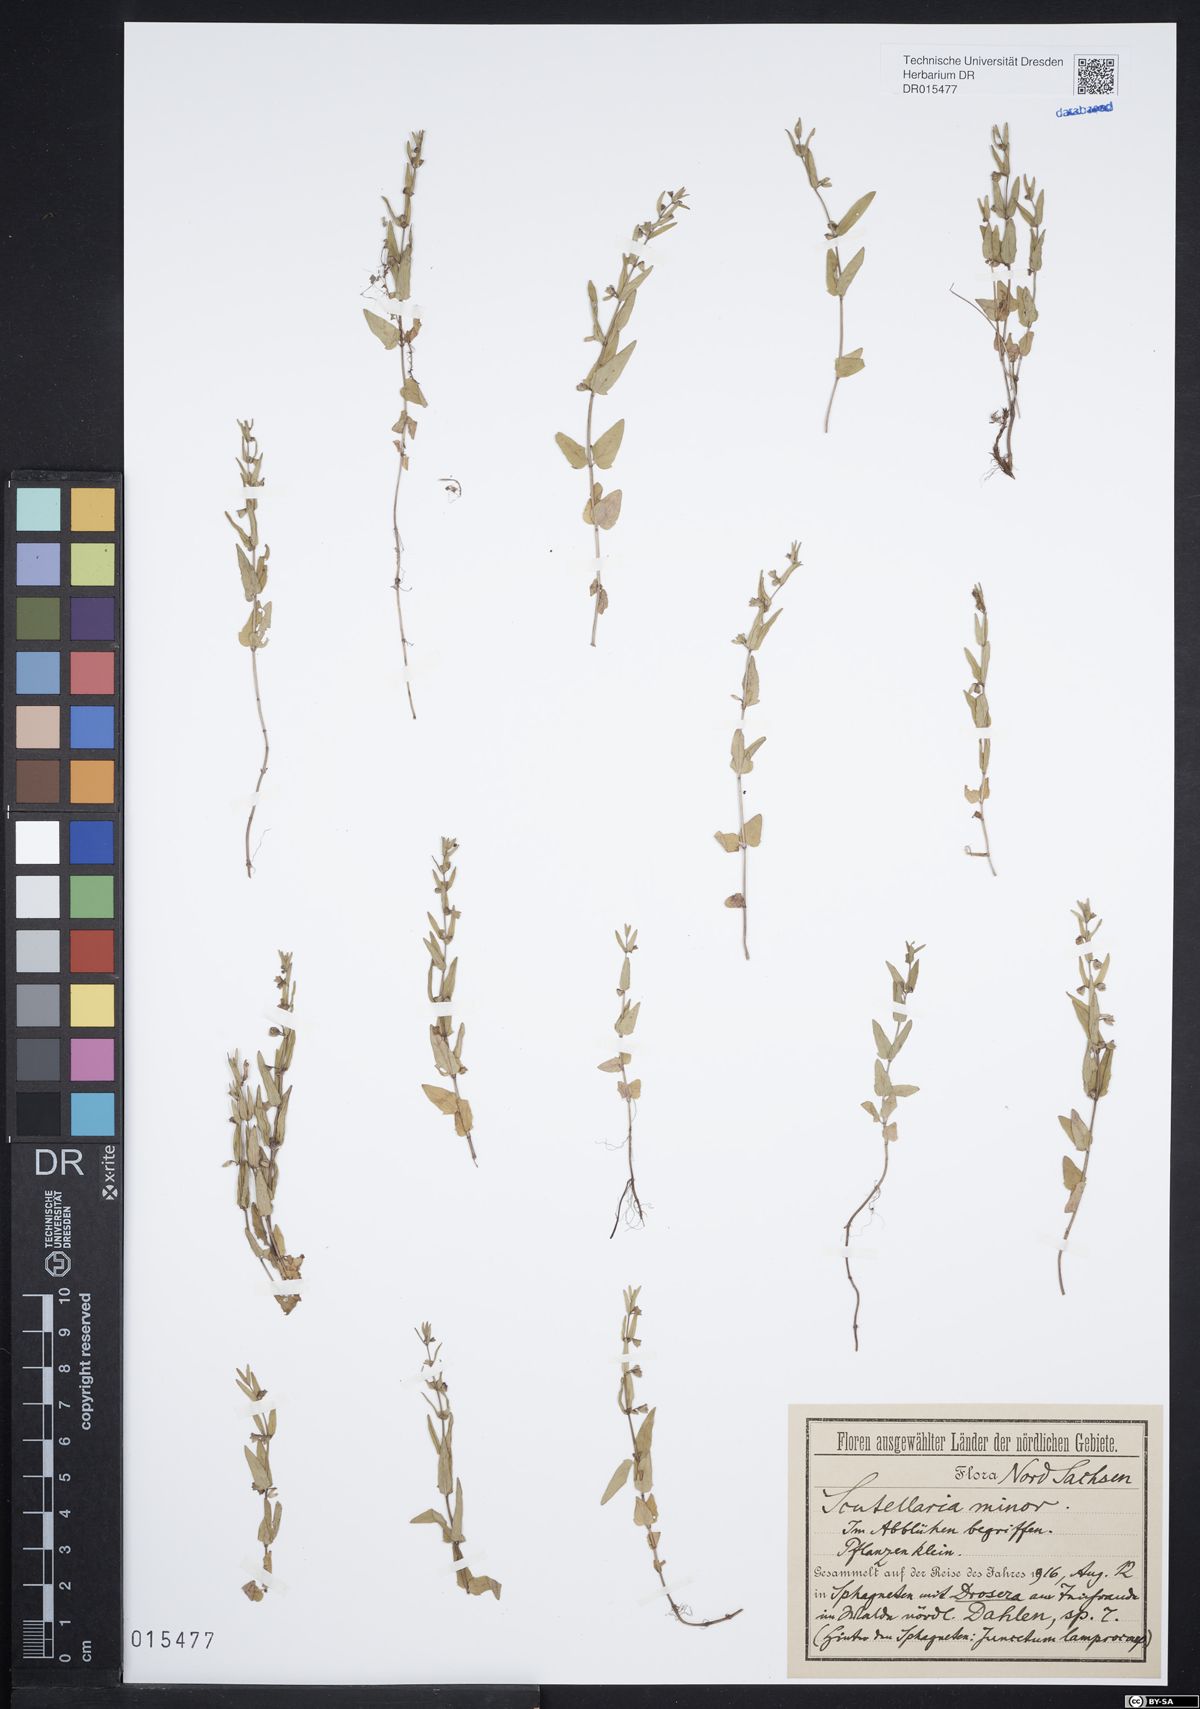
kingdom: Plantae
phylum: Tracheophyta
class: Magnoliopsida
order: Lamiales
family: Lamiaceae
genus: Scutellaria
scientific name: Scutellaria minor
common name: Lesser skullcap
